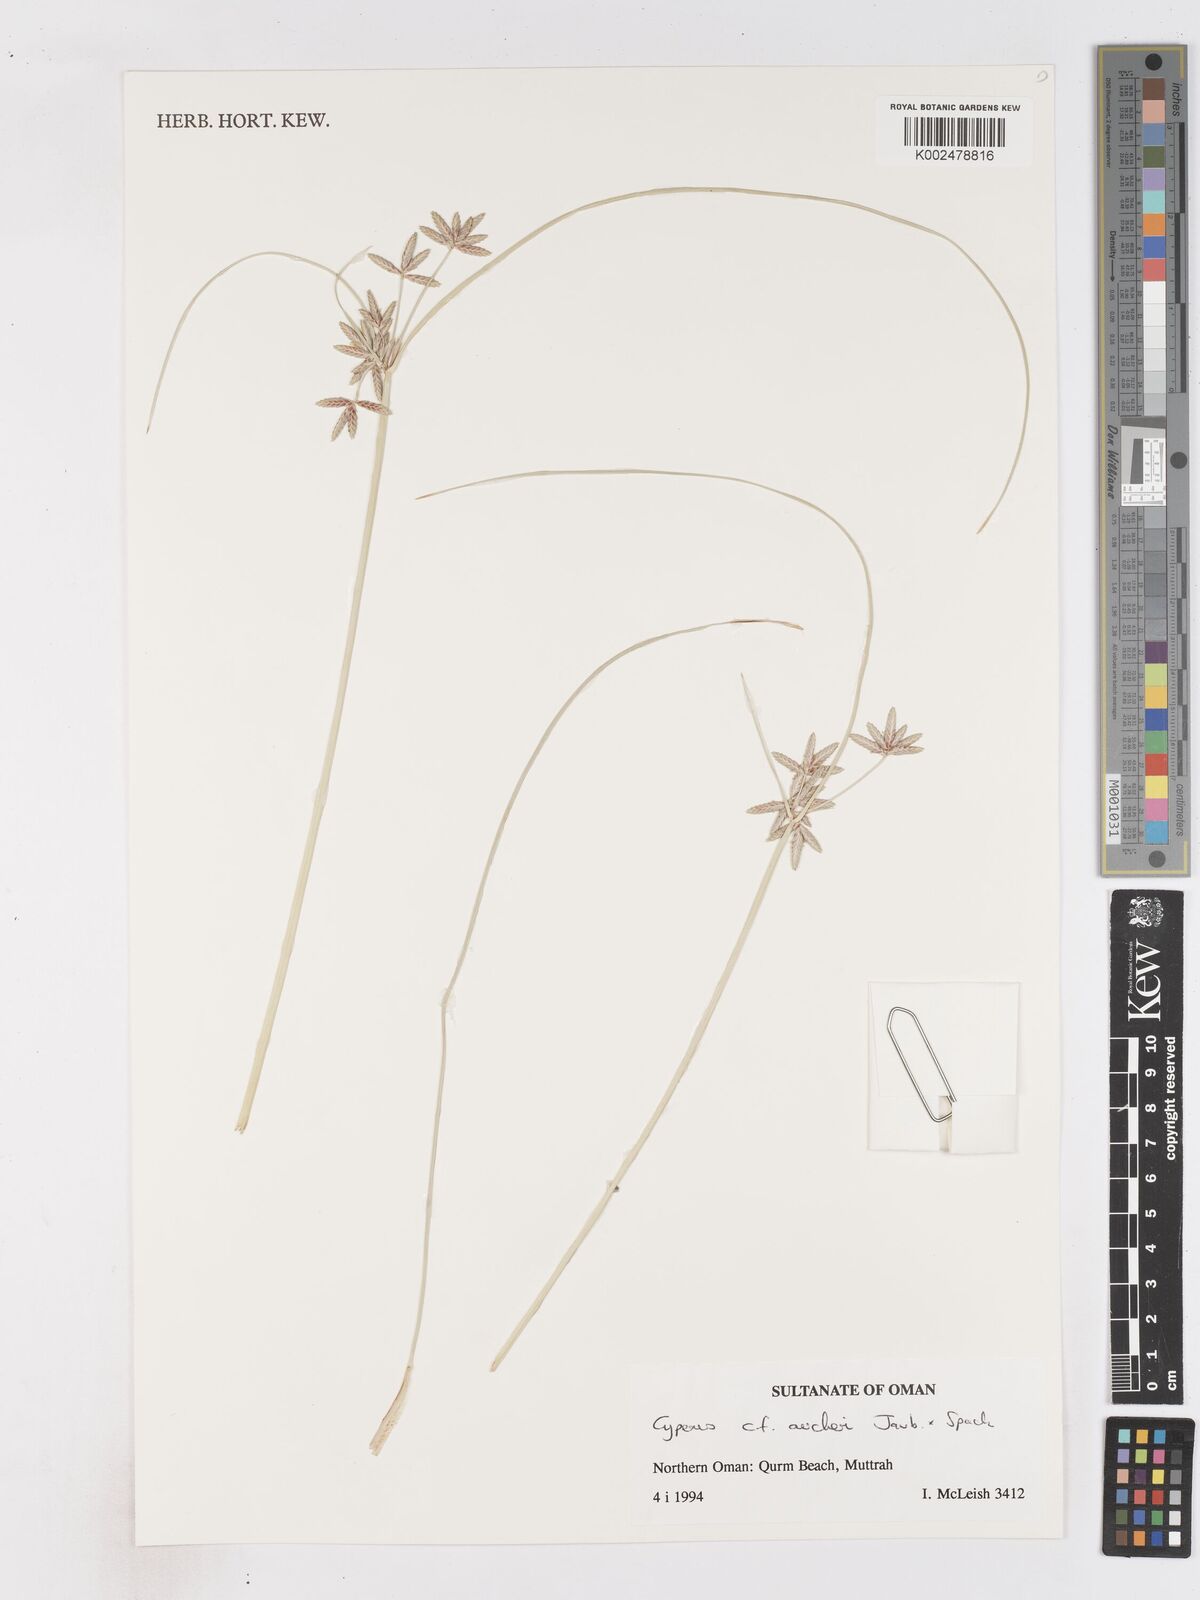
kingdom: Plantae
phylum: Tracheophyta
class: Liliopsida
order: Poales
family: Cyperaceae
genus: Cyperus
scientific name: Cyperus aucheri
